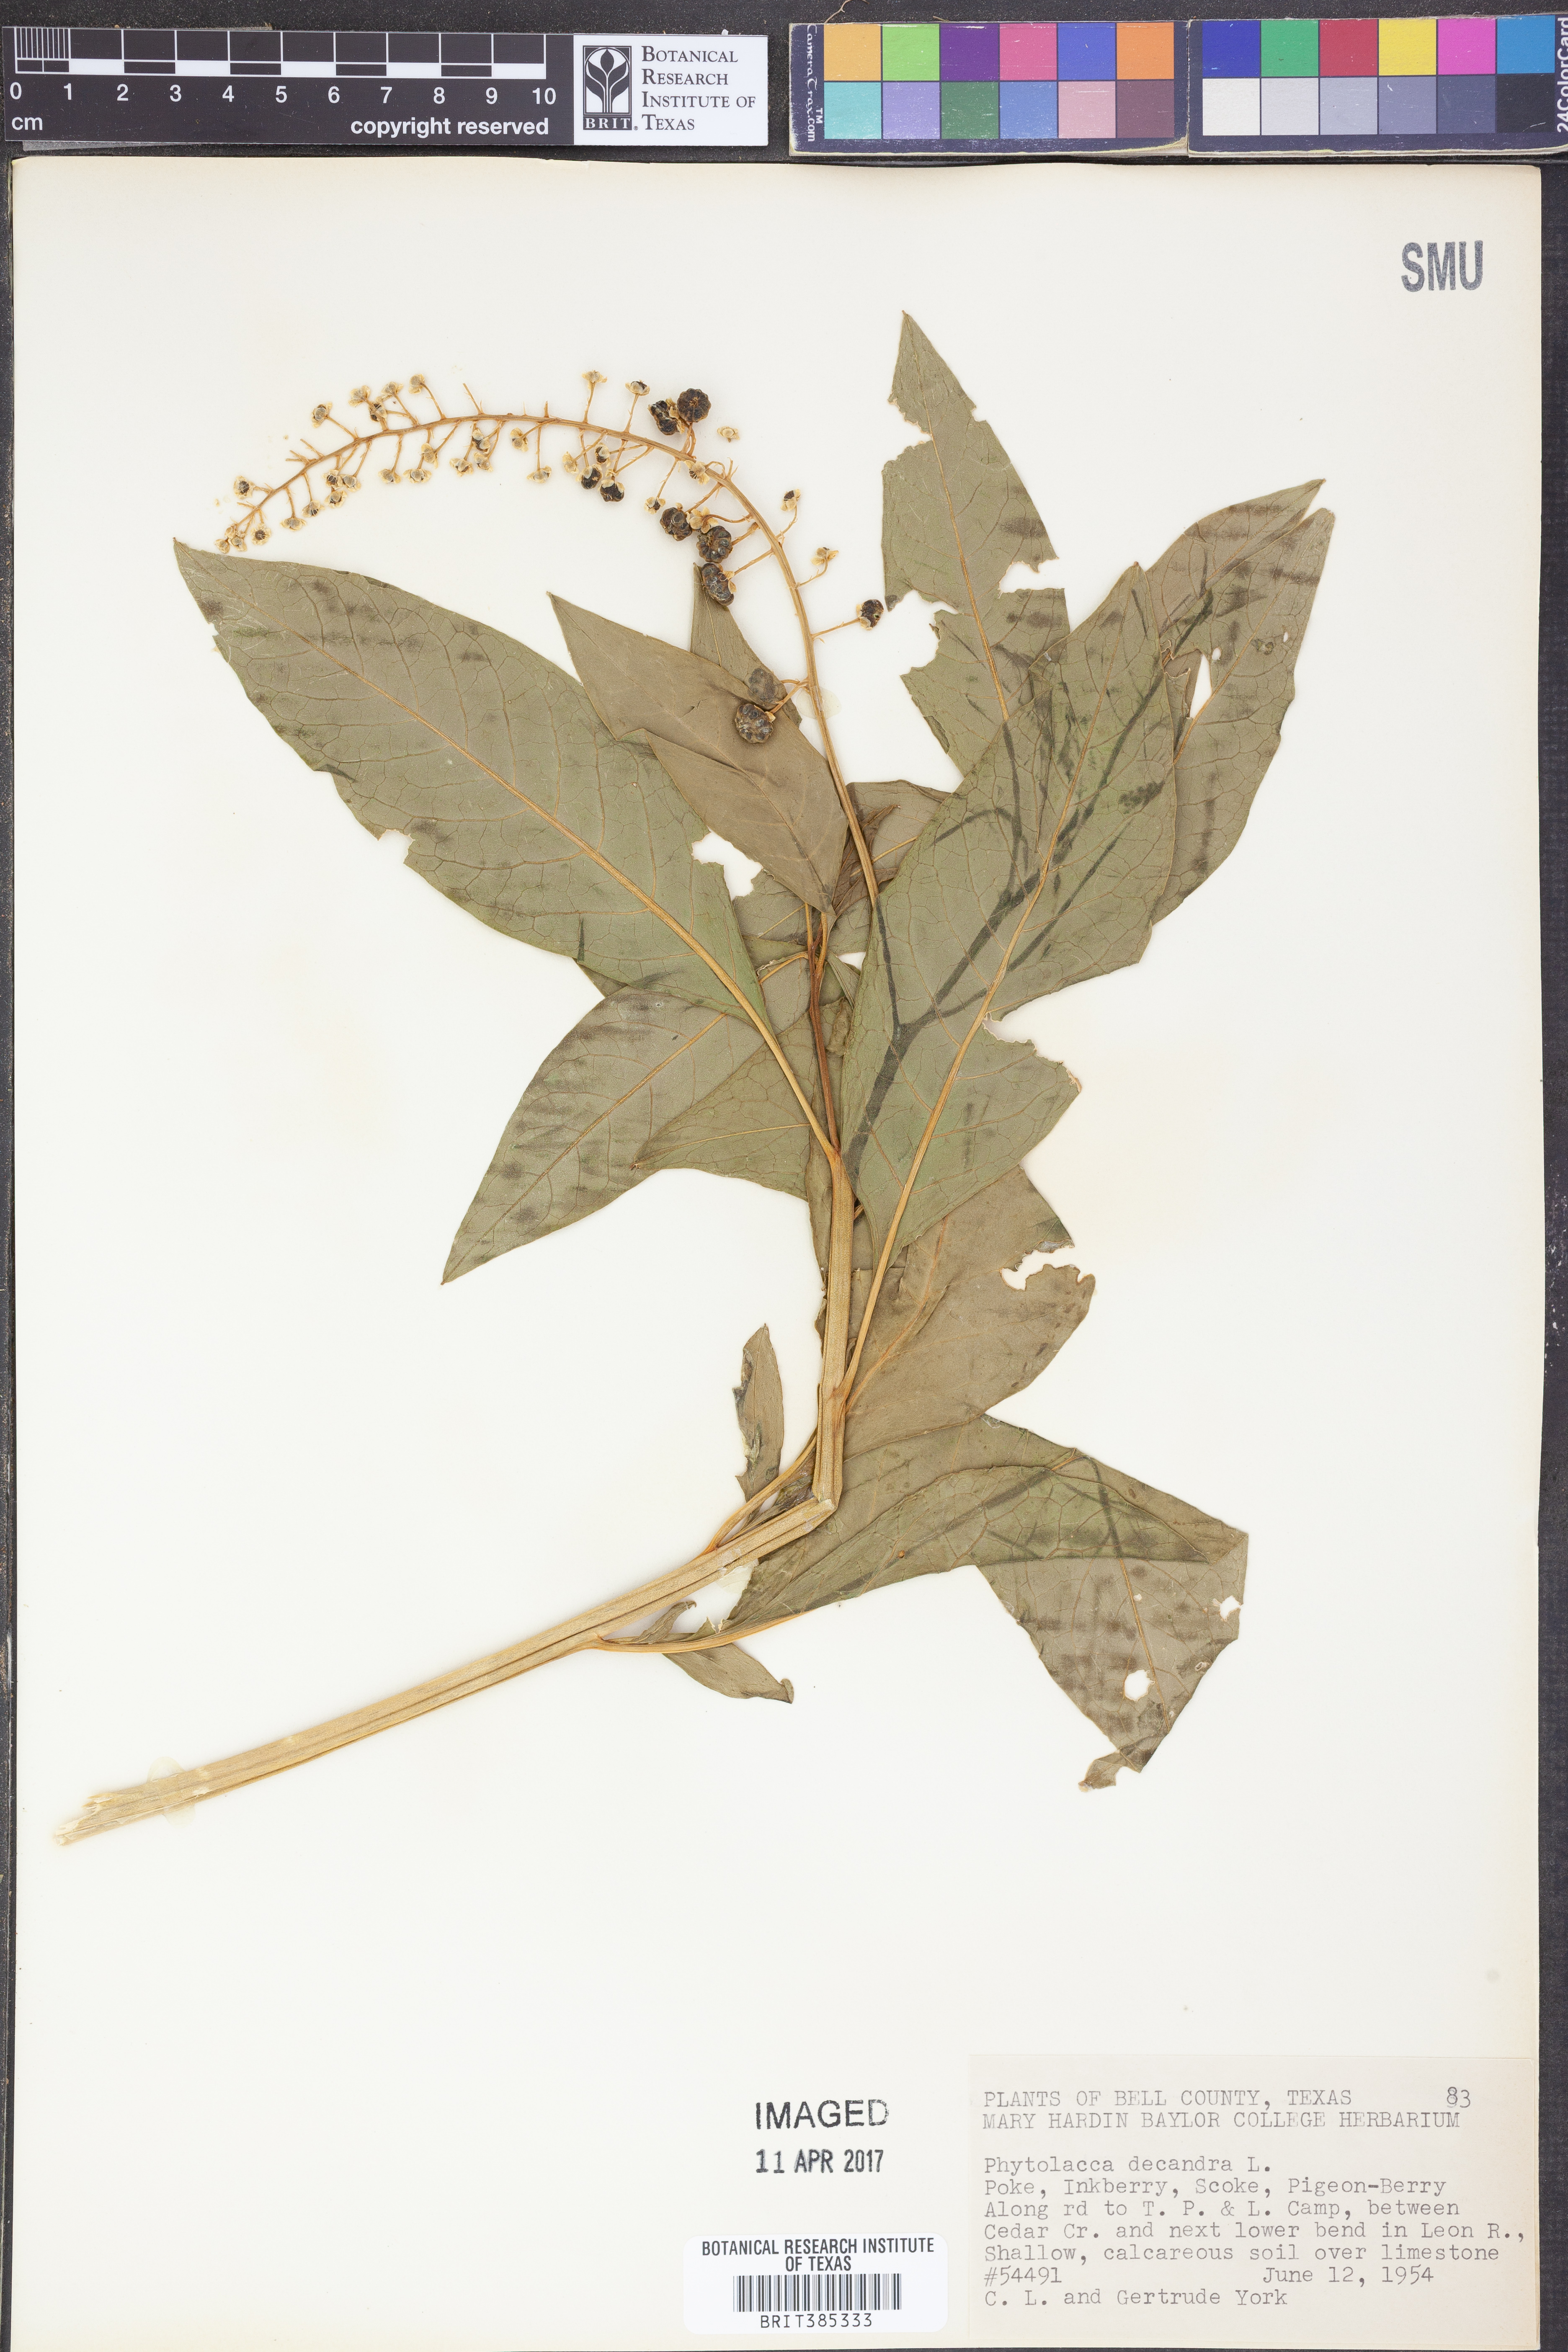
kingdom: Plantae
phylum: Tracheophyta
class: Magnoliopsida
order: Caryophyllales
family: Phytolaccaceae
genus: Phytolacca
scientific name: Phytolacca americana
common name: American pokeweed
